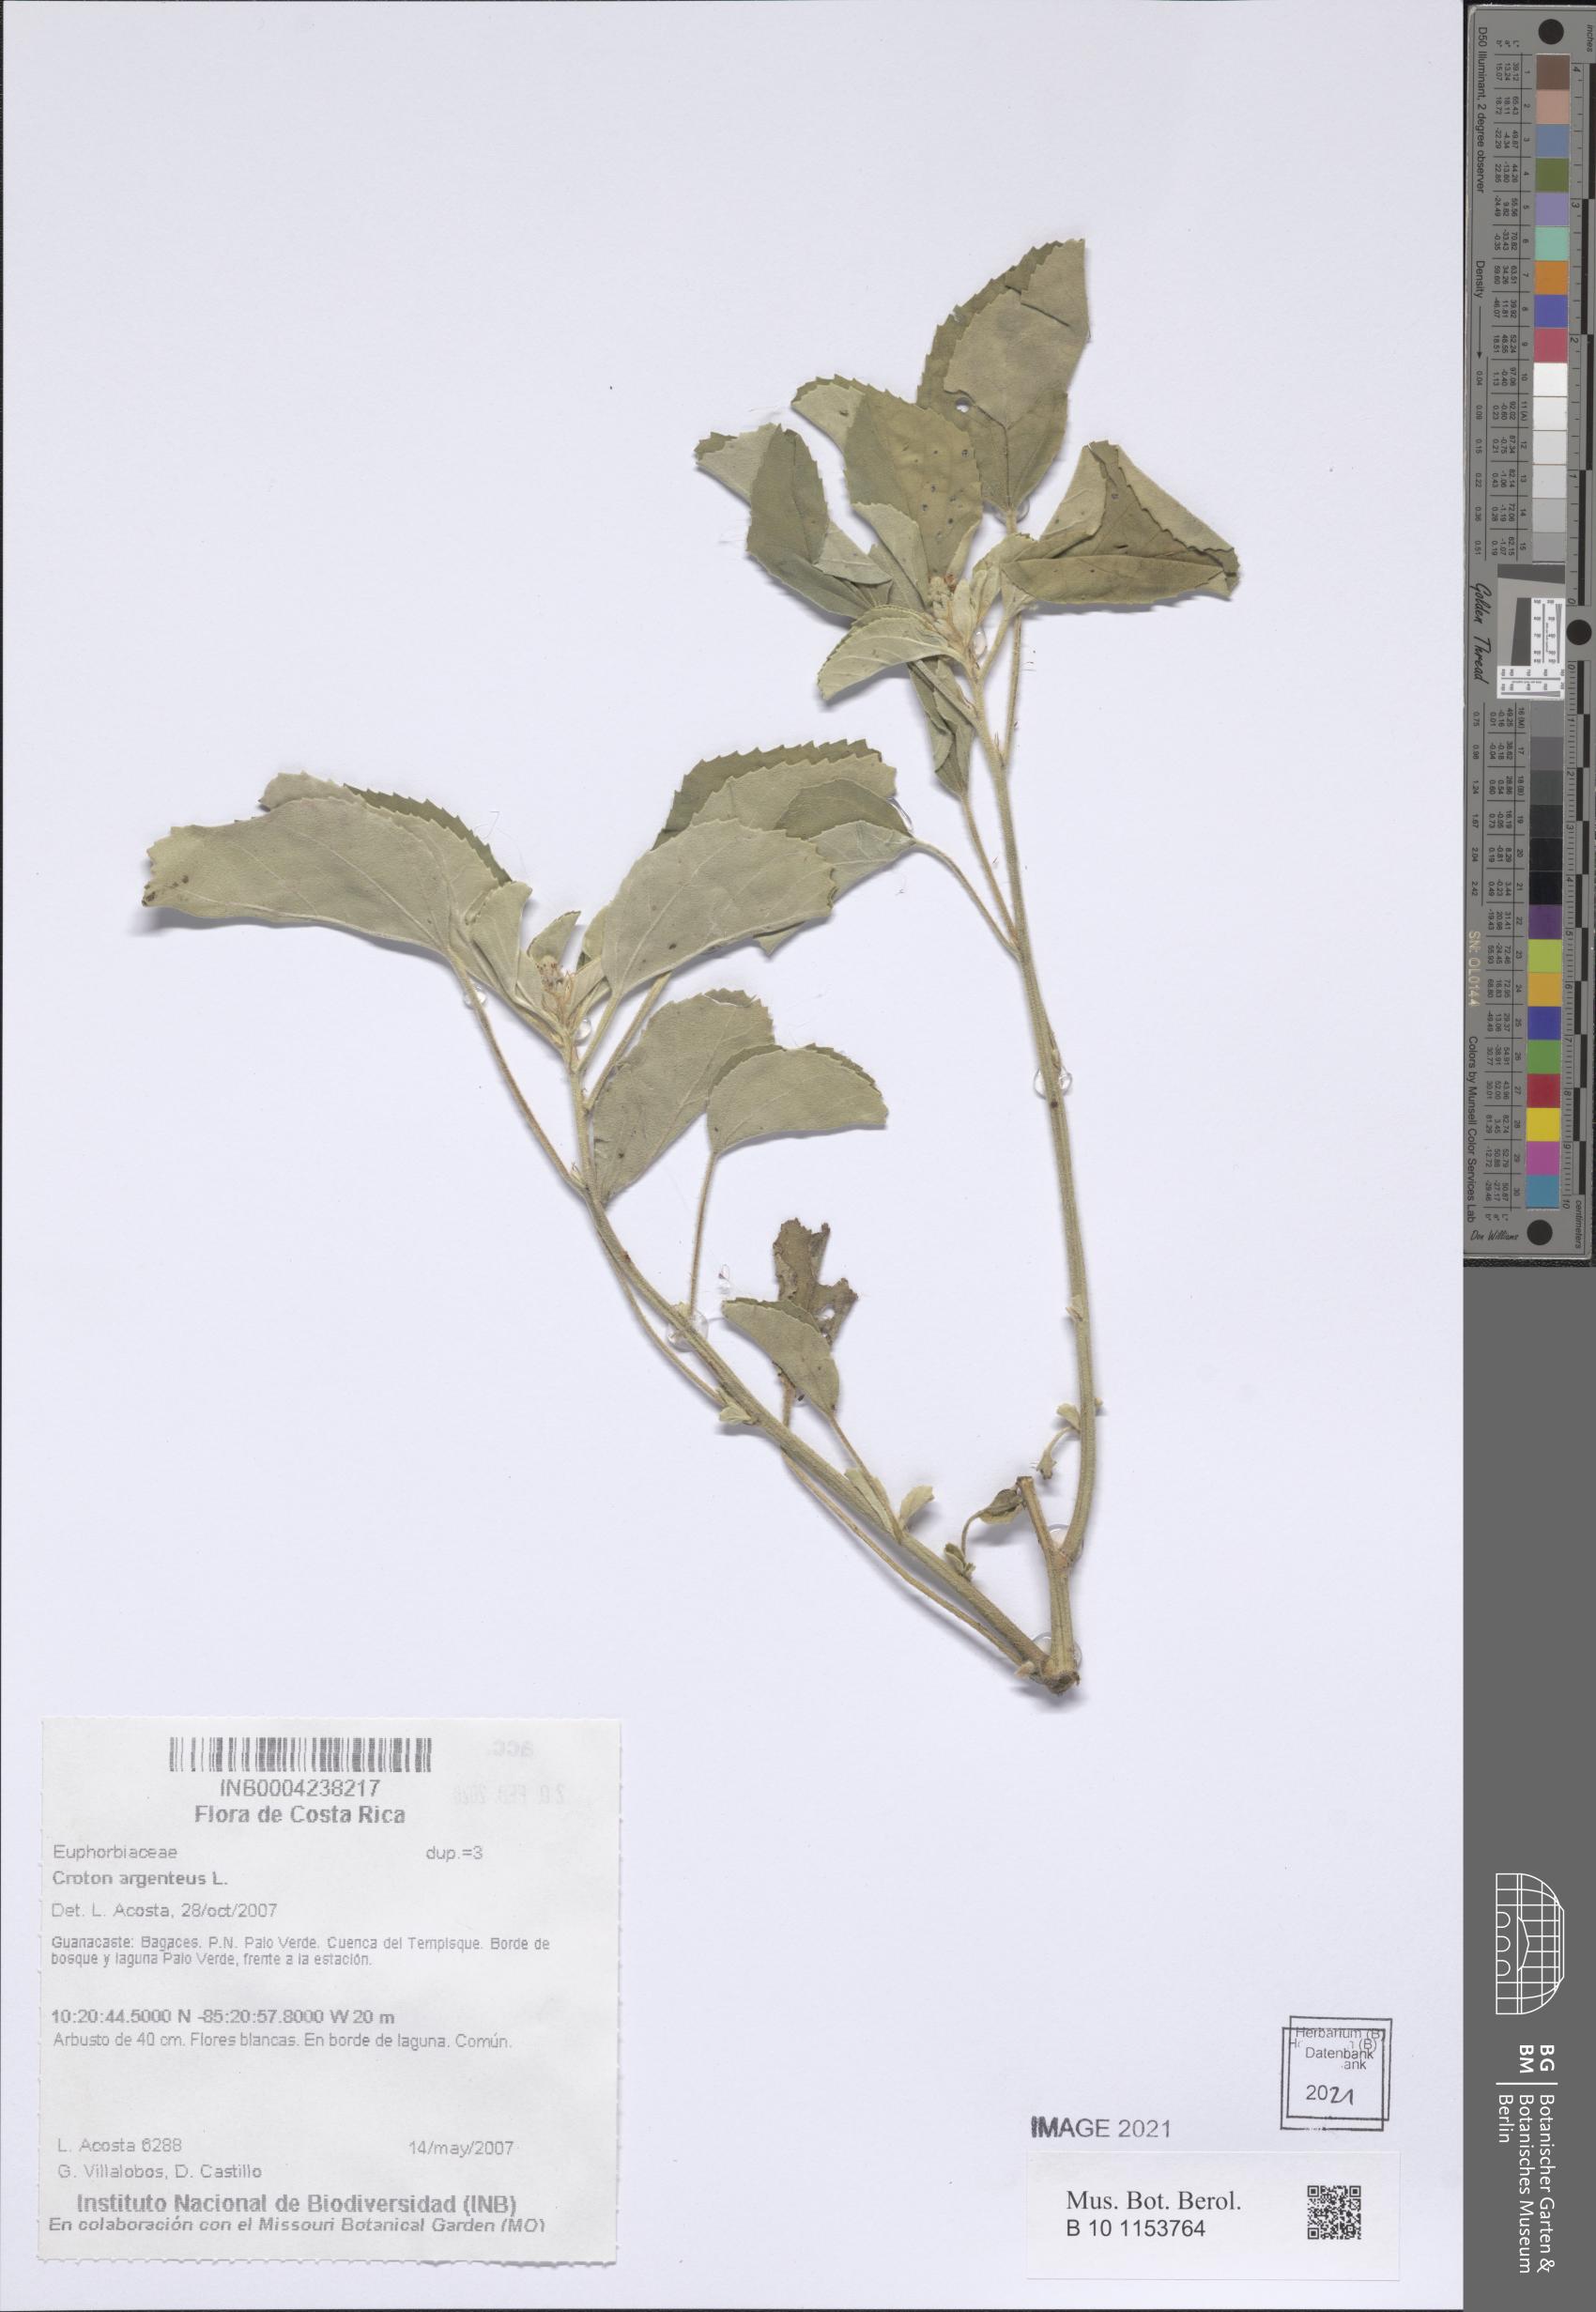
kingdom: Plantae
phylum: Tracheophyta
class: Magnoliopsida
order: Malpighiales
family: Euphorbiaceae
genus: Croton
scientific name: Croton argenteus
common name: Silver july croton
